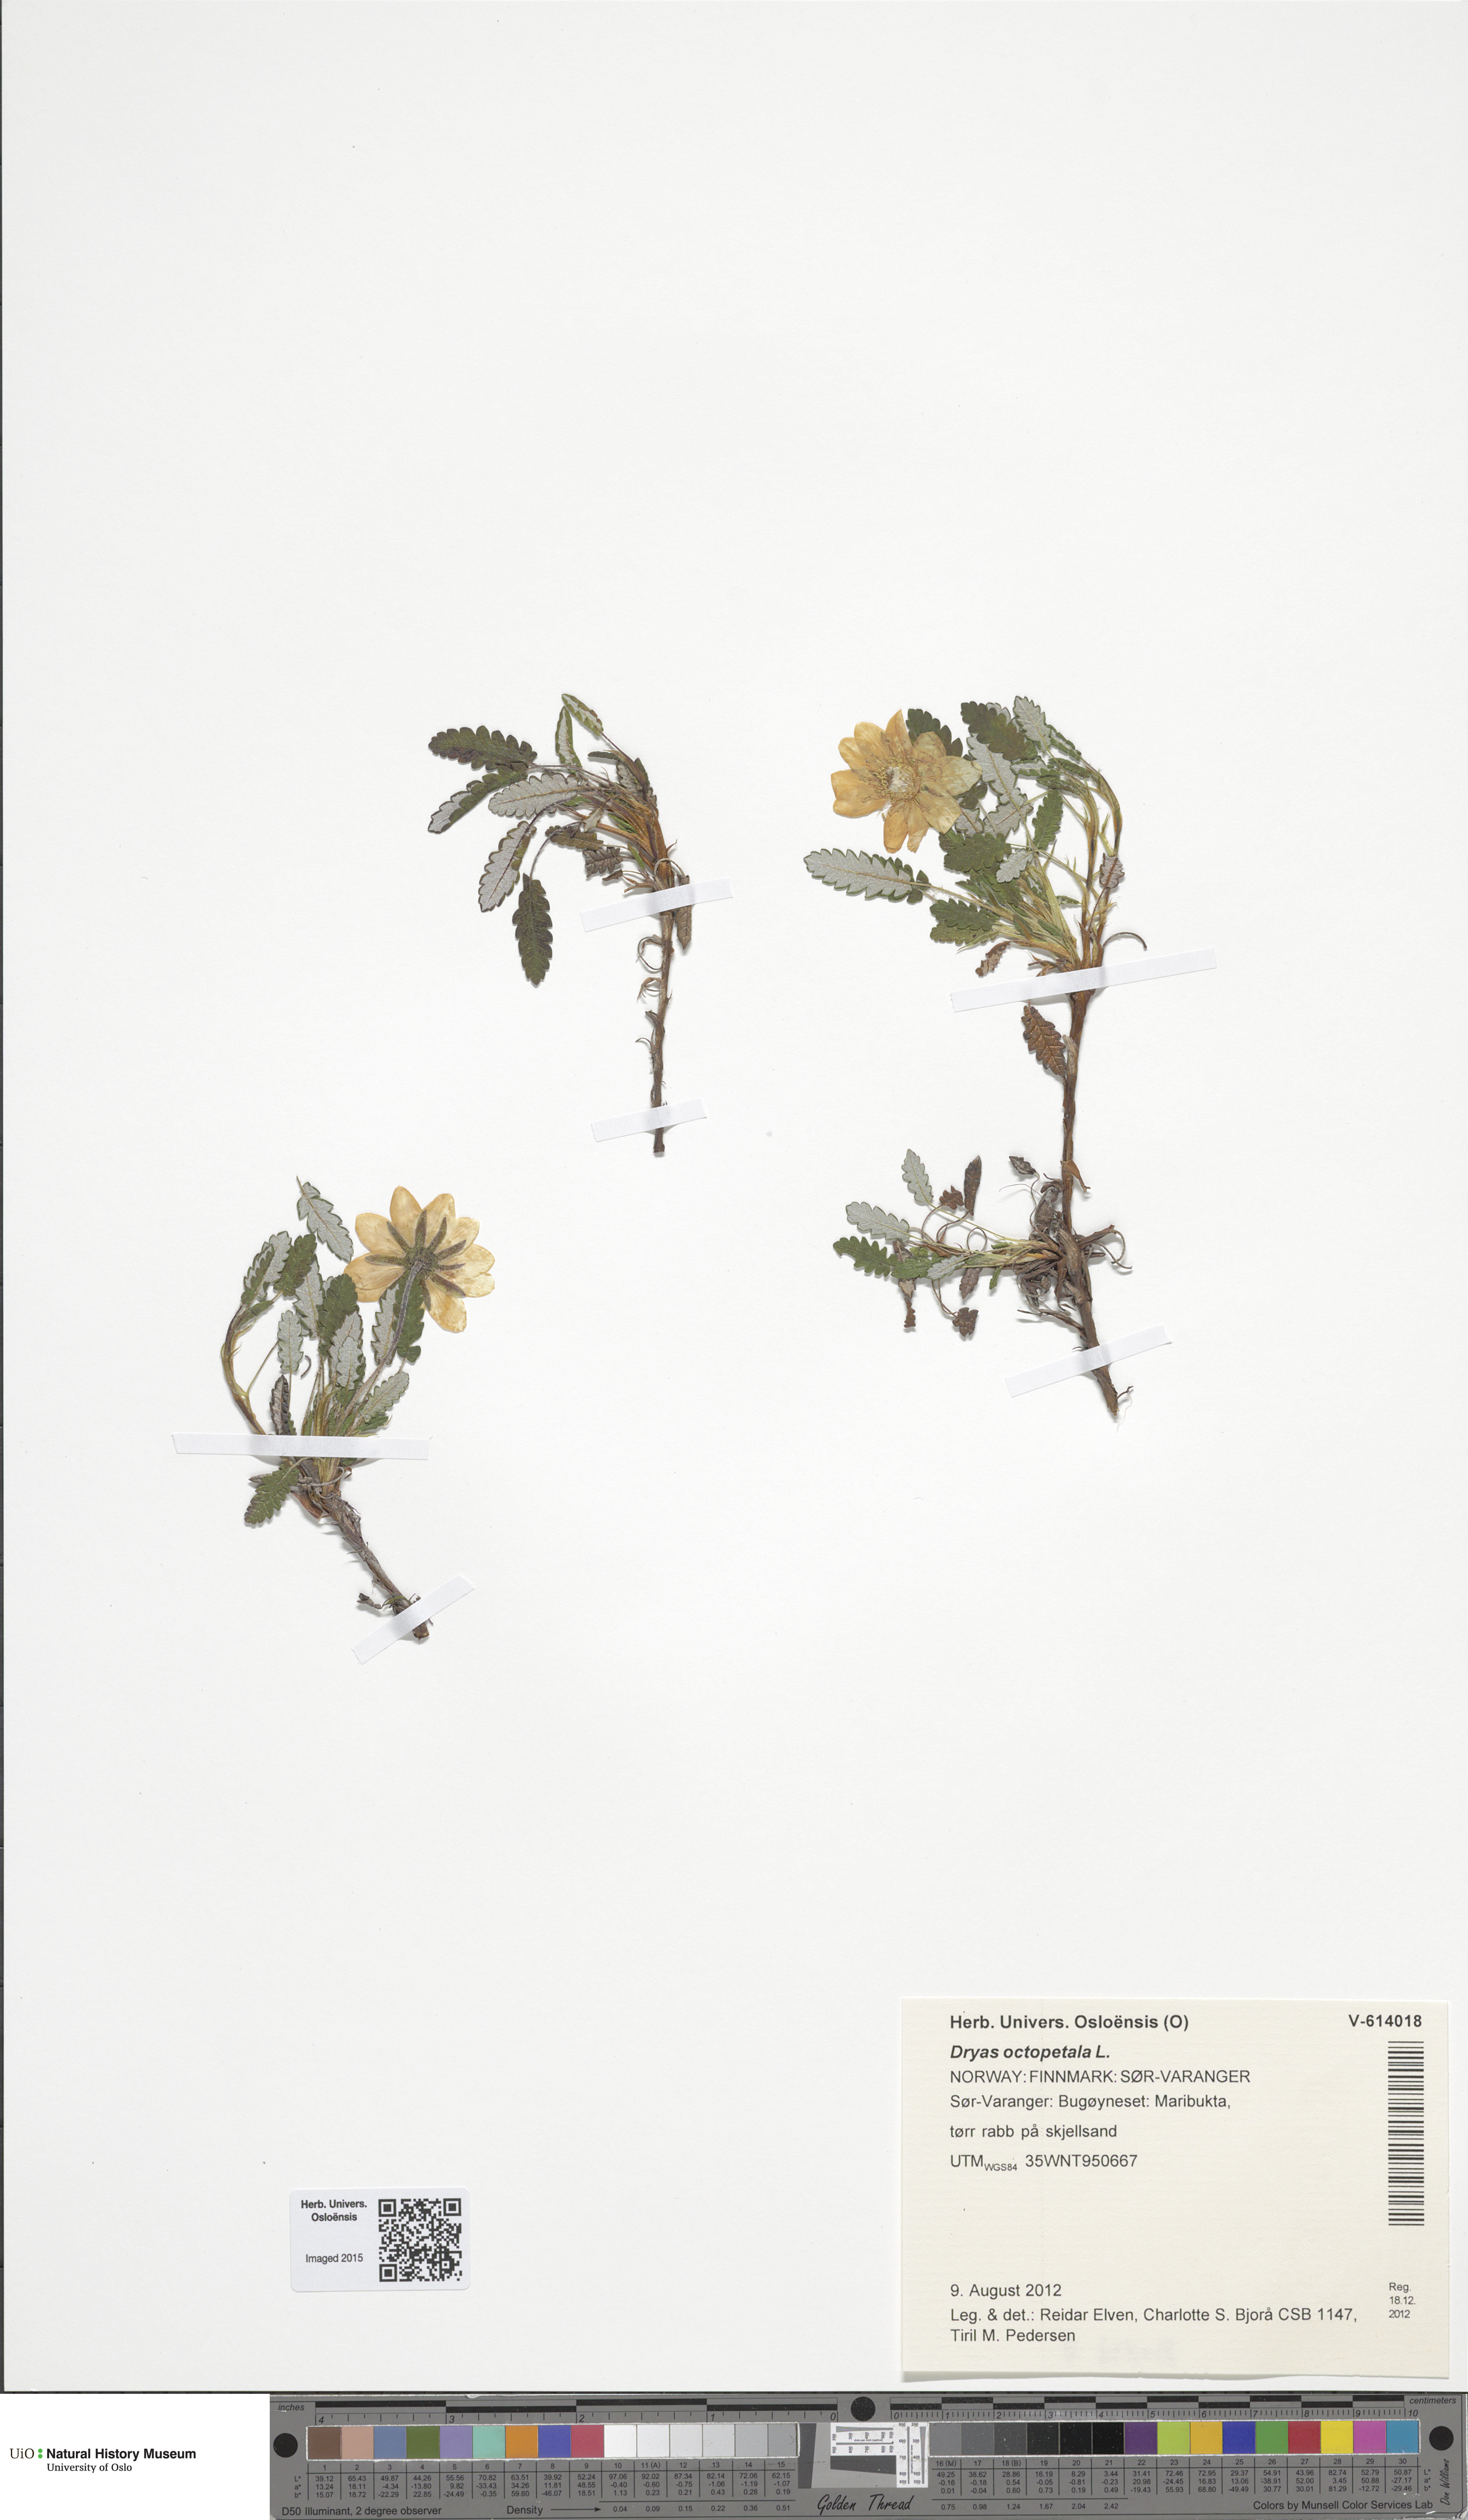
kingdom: Plantae
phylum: Tracheophyta
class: Magnoliopsida
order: Rosales
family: Rosaceae
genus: Dryas
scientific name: Dryas octopetala
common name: Eight-petal mountain-avens
